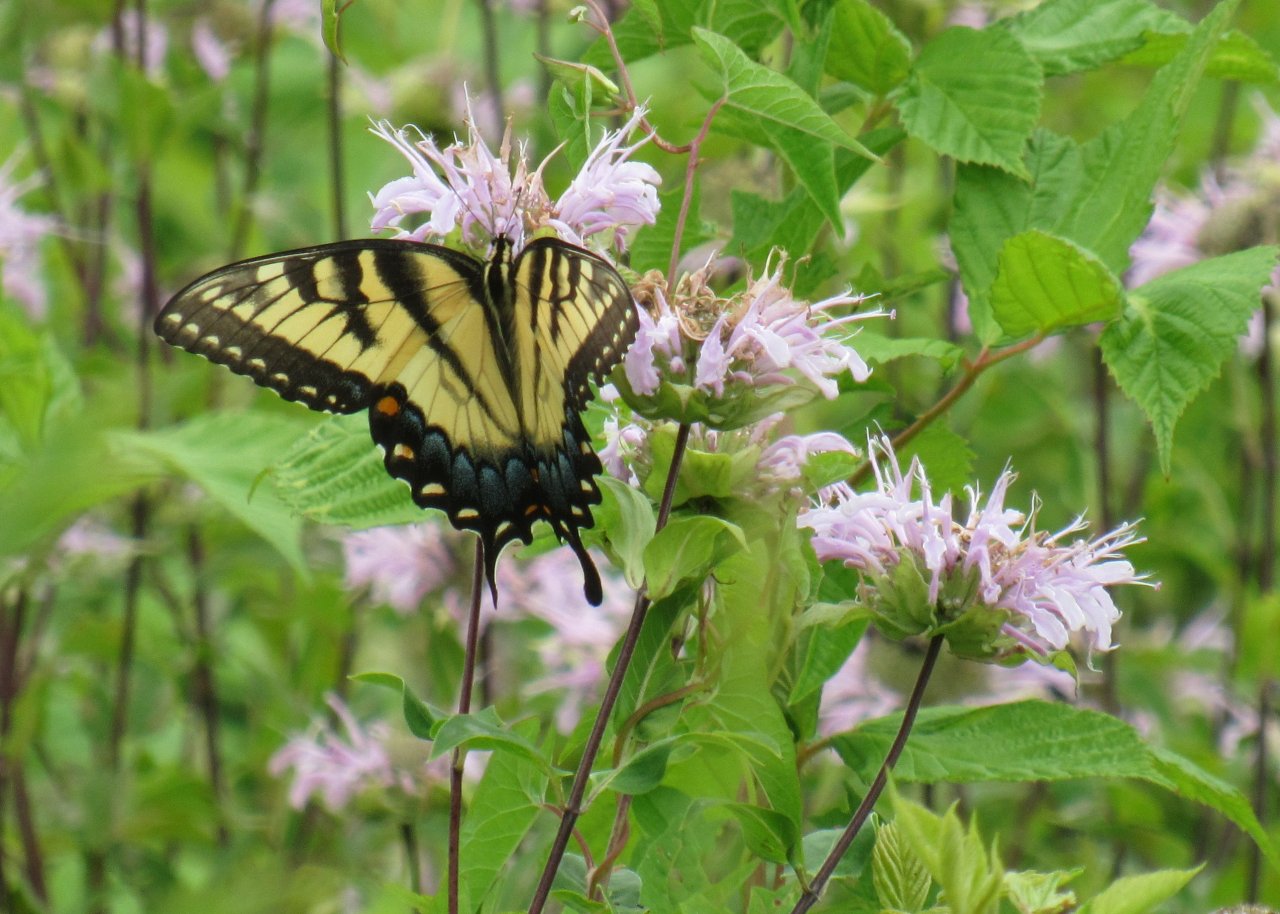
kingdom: Animalia
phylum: Arthropoda
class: Insecta
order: Lepidoptera
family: Papilionidae
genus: Pterourus
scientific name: Pterourus glaucus
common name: Eastern Tiger Swallowtail
